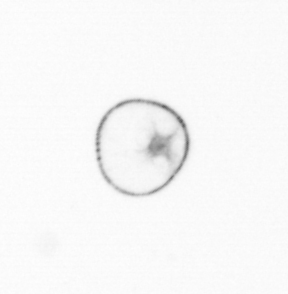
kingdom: Chromista
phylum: Myzozoa
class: Dinophyceae
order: Noctilucales
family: Noctilucaceae
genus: Noctiluca
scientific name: Noctiluca scintillans
